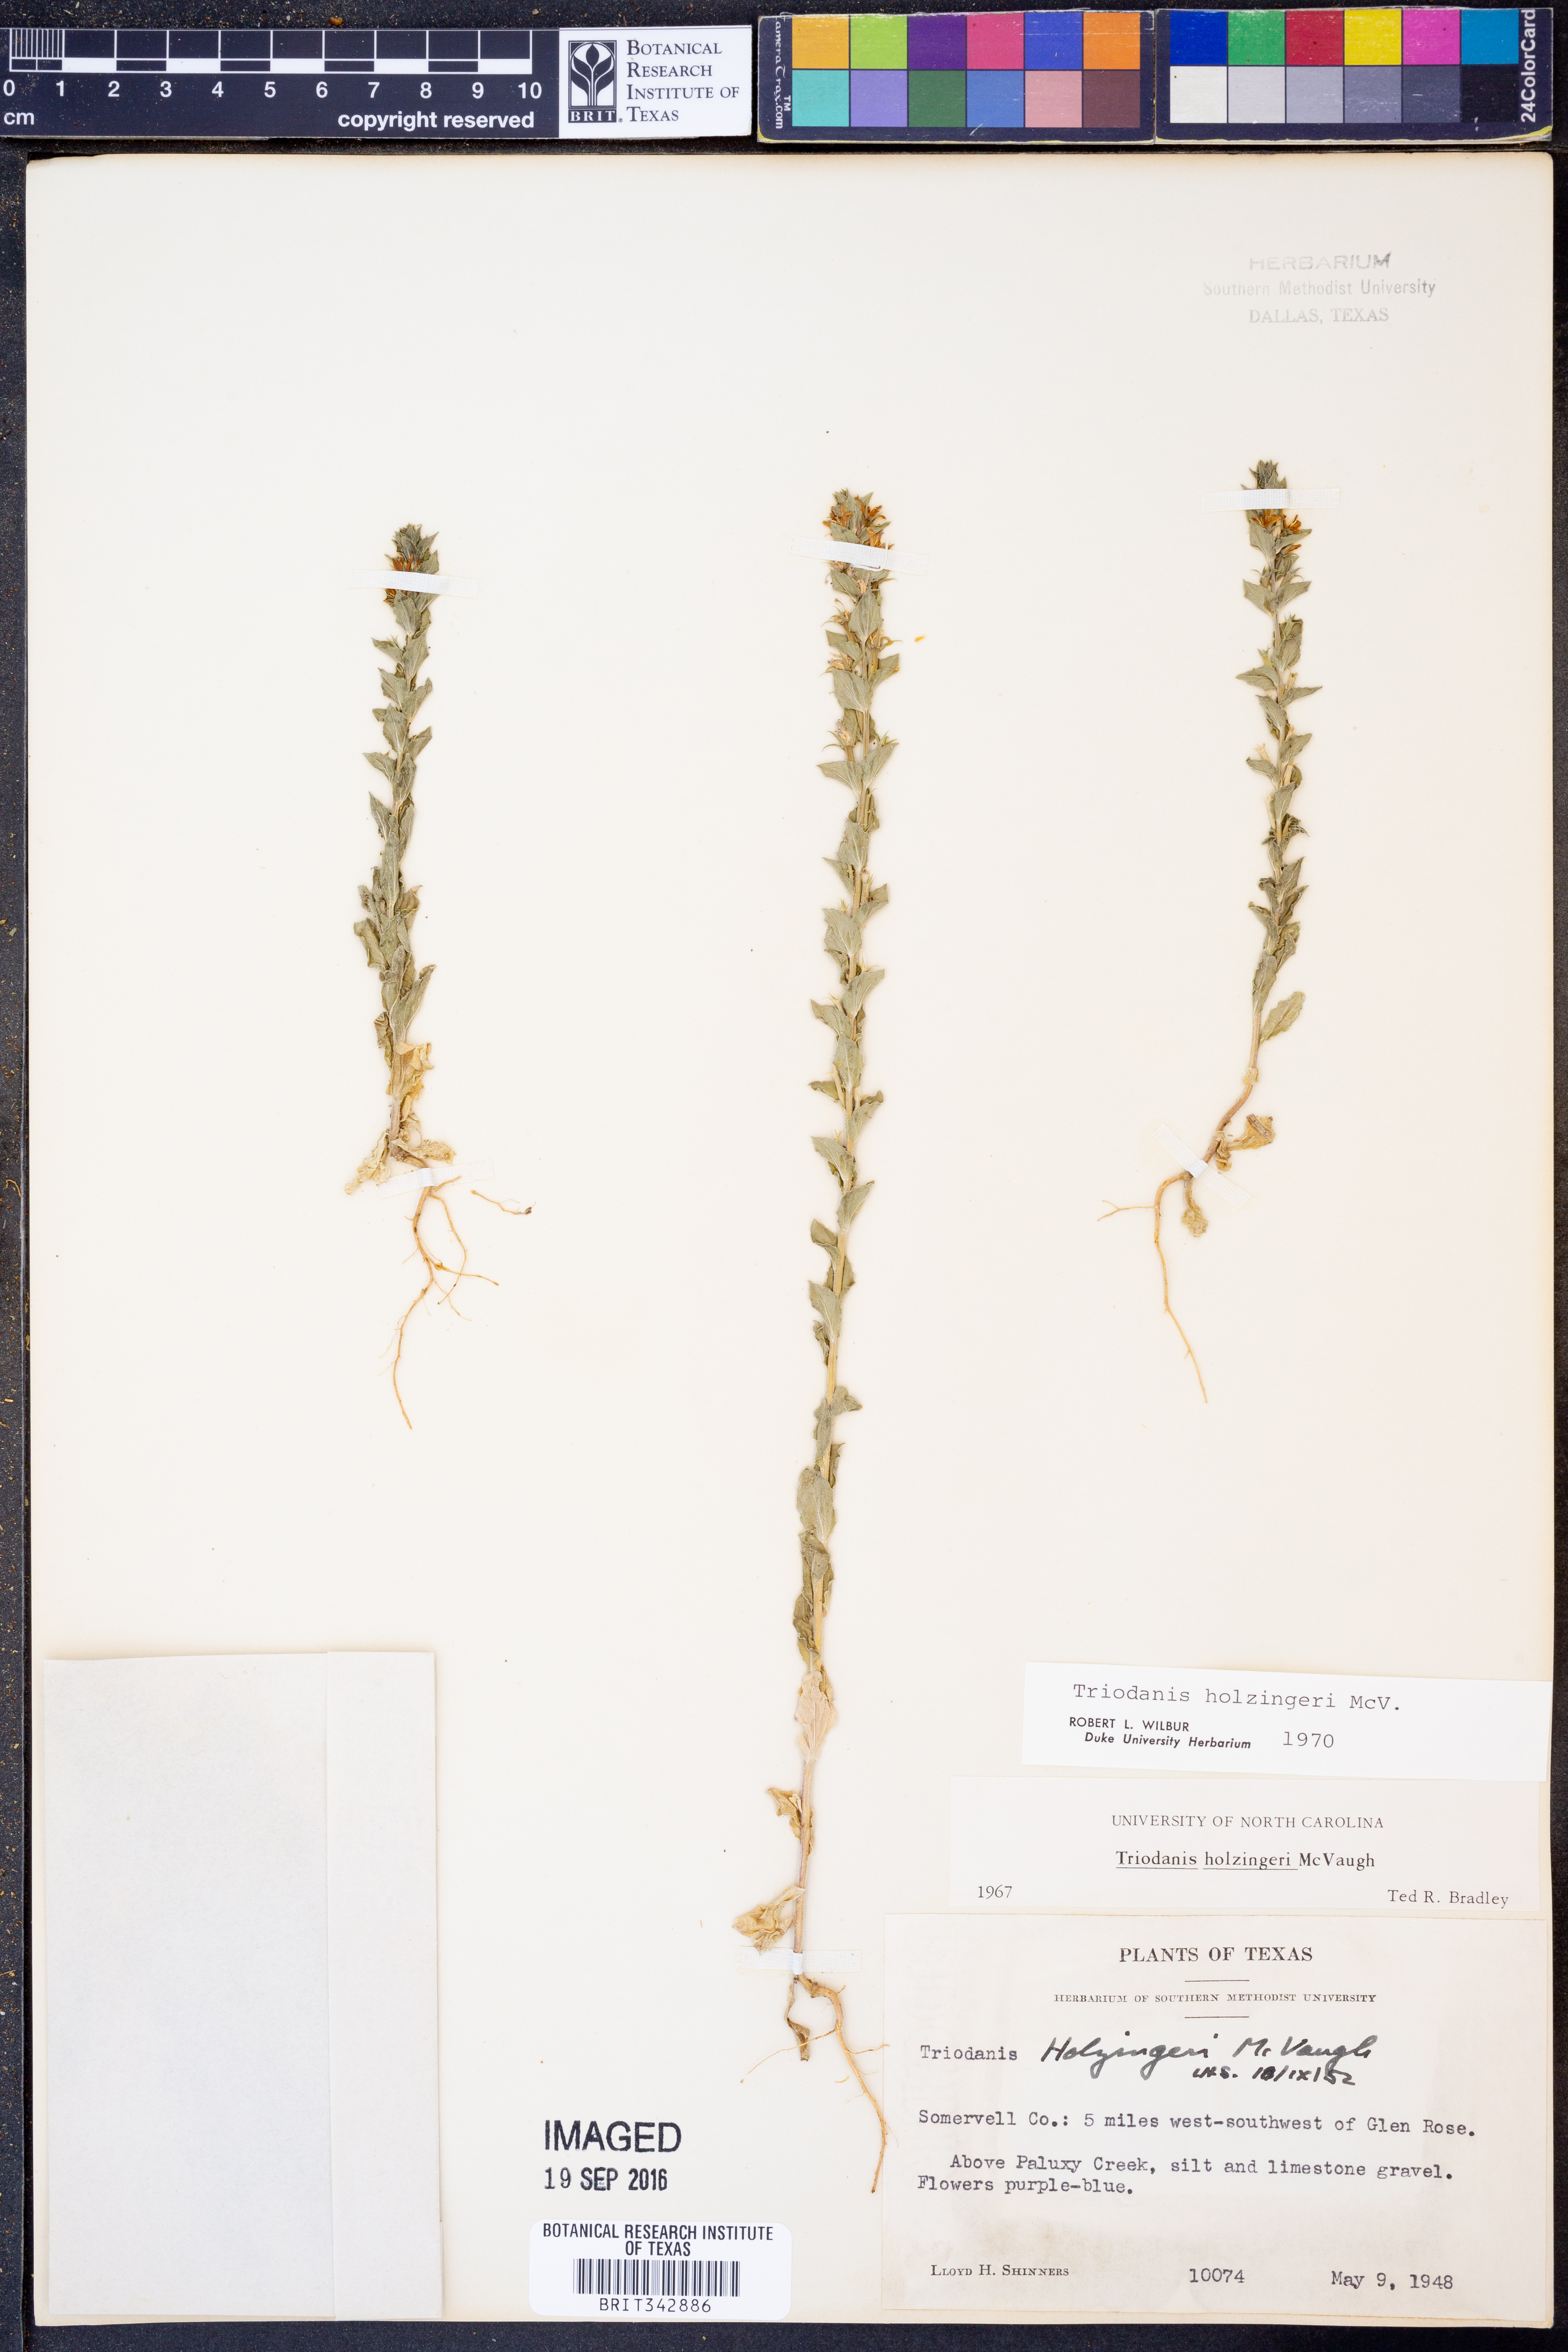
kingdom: Plantae
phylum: Tracheophyta
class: Magnoliopsida
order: Asterales
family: Campanulaceae
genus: Triodanis
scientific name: Triodanis holzingeri
